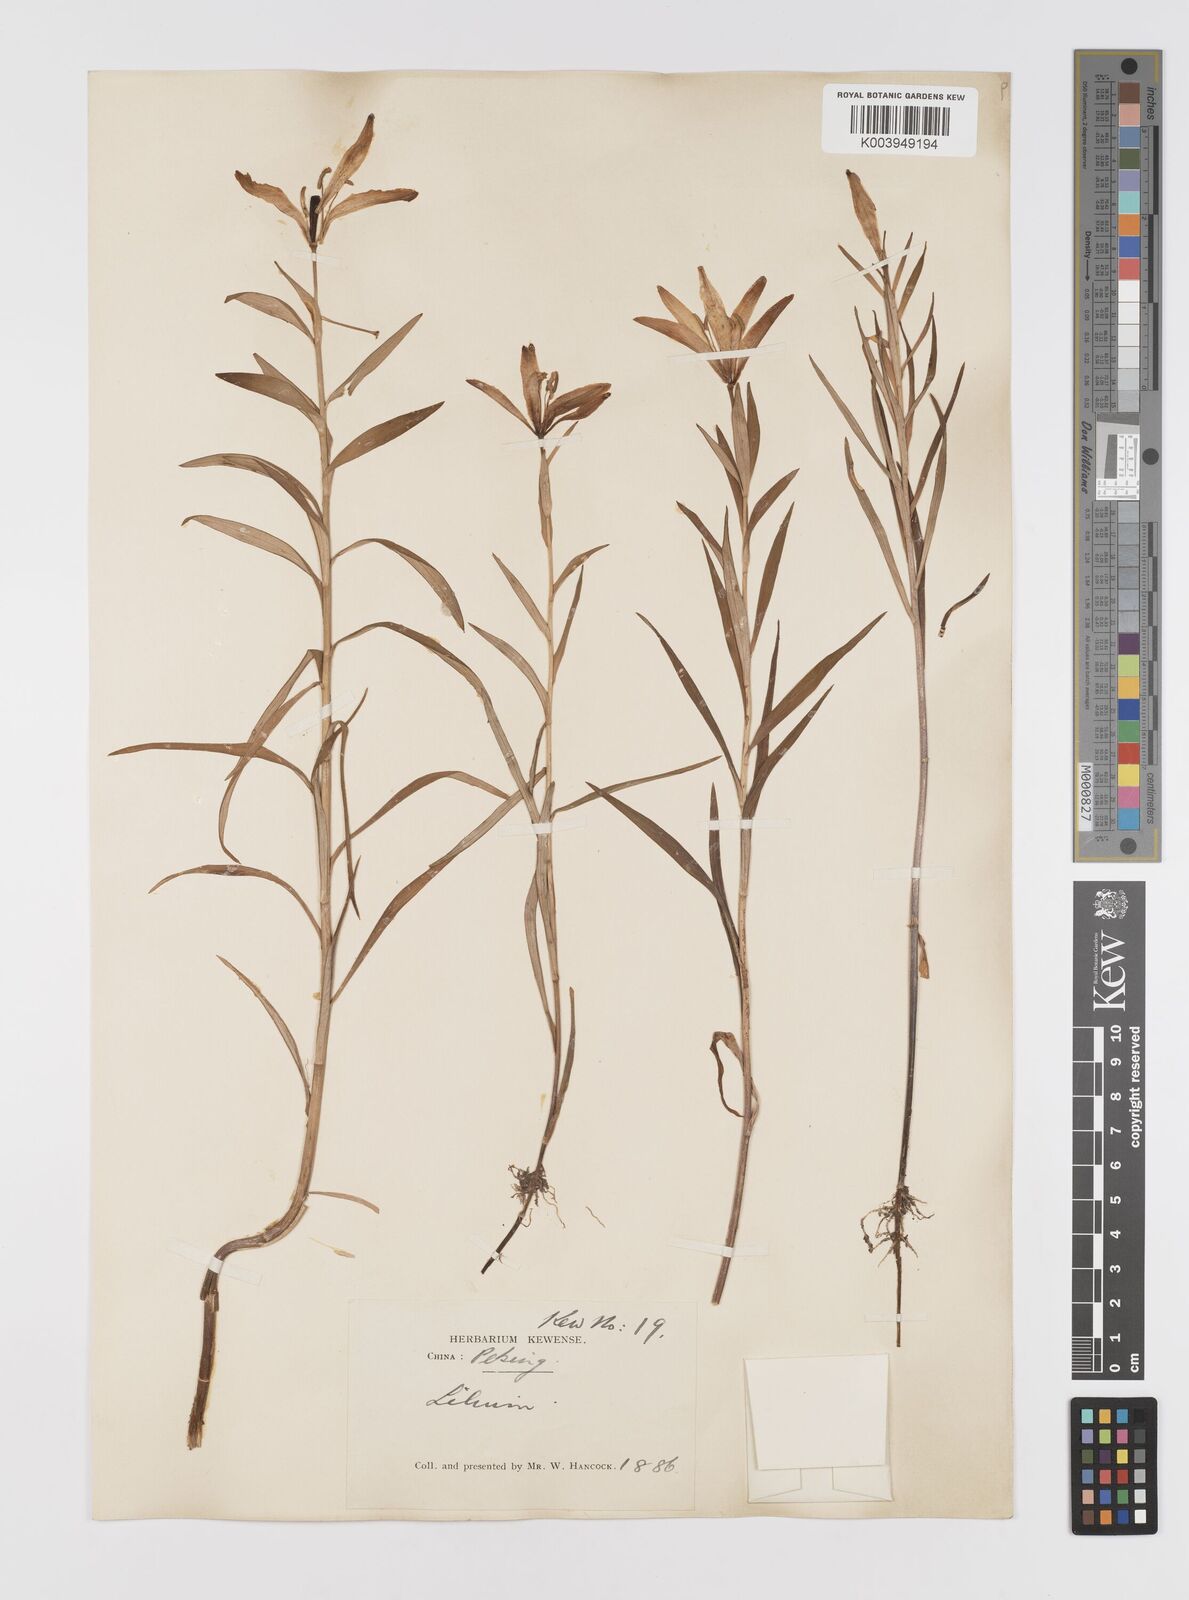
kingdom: Plantae
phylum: Tracheophyta
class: Liliopsida
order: Liliales
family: Liliaceae
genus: Lilium
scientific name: Lilium concolor
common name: Morning-star lily
